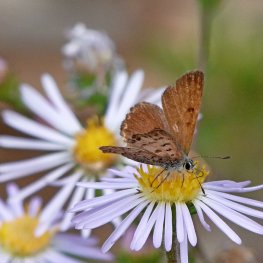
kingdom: Animalia
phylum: Arthropoda
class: Insecta
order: Lepidoptera
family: Lycaenidae
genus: Lycaena
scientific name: Lycaena mariposa
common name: Mariposa Copper
